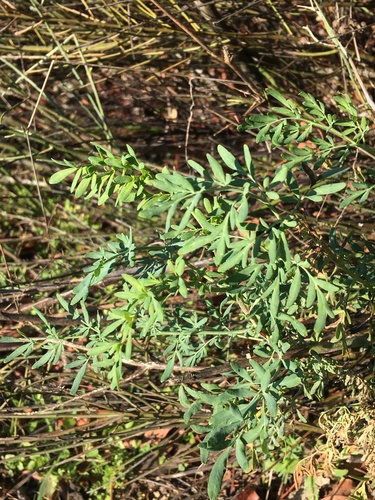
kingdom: Plantae
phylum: Tracheophyta
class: Magnoliopsida
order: Sapindales
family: Rutaceae
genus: Ruta
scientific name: Ruta chalepensis
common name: Fringed rue
